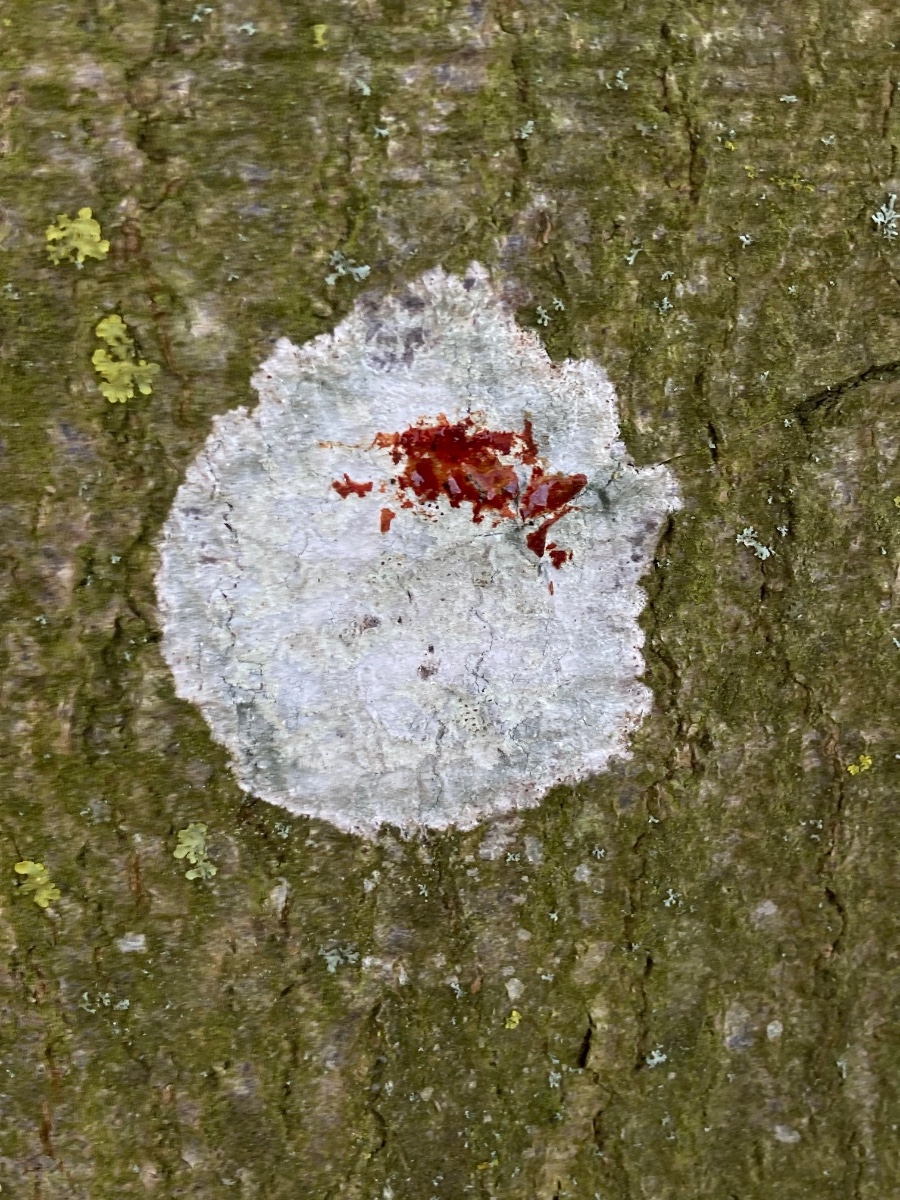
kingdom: Fungi
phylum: Ascomycota
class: Lecanoromycetes
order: Ostropales
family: Phlyctidaceae
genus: Phlyctis
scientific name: Phlyctis argena
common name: almindelig sølvlav
